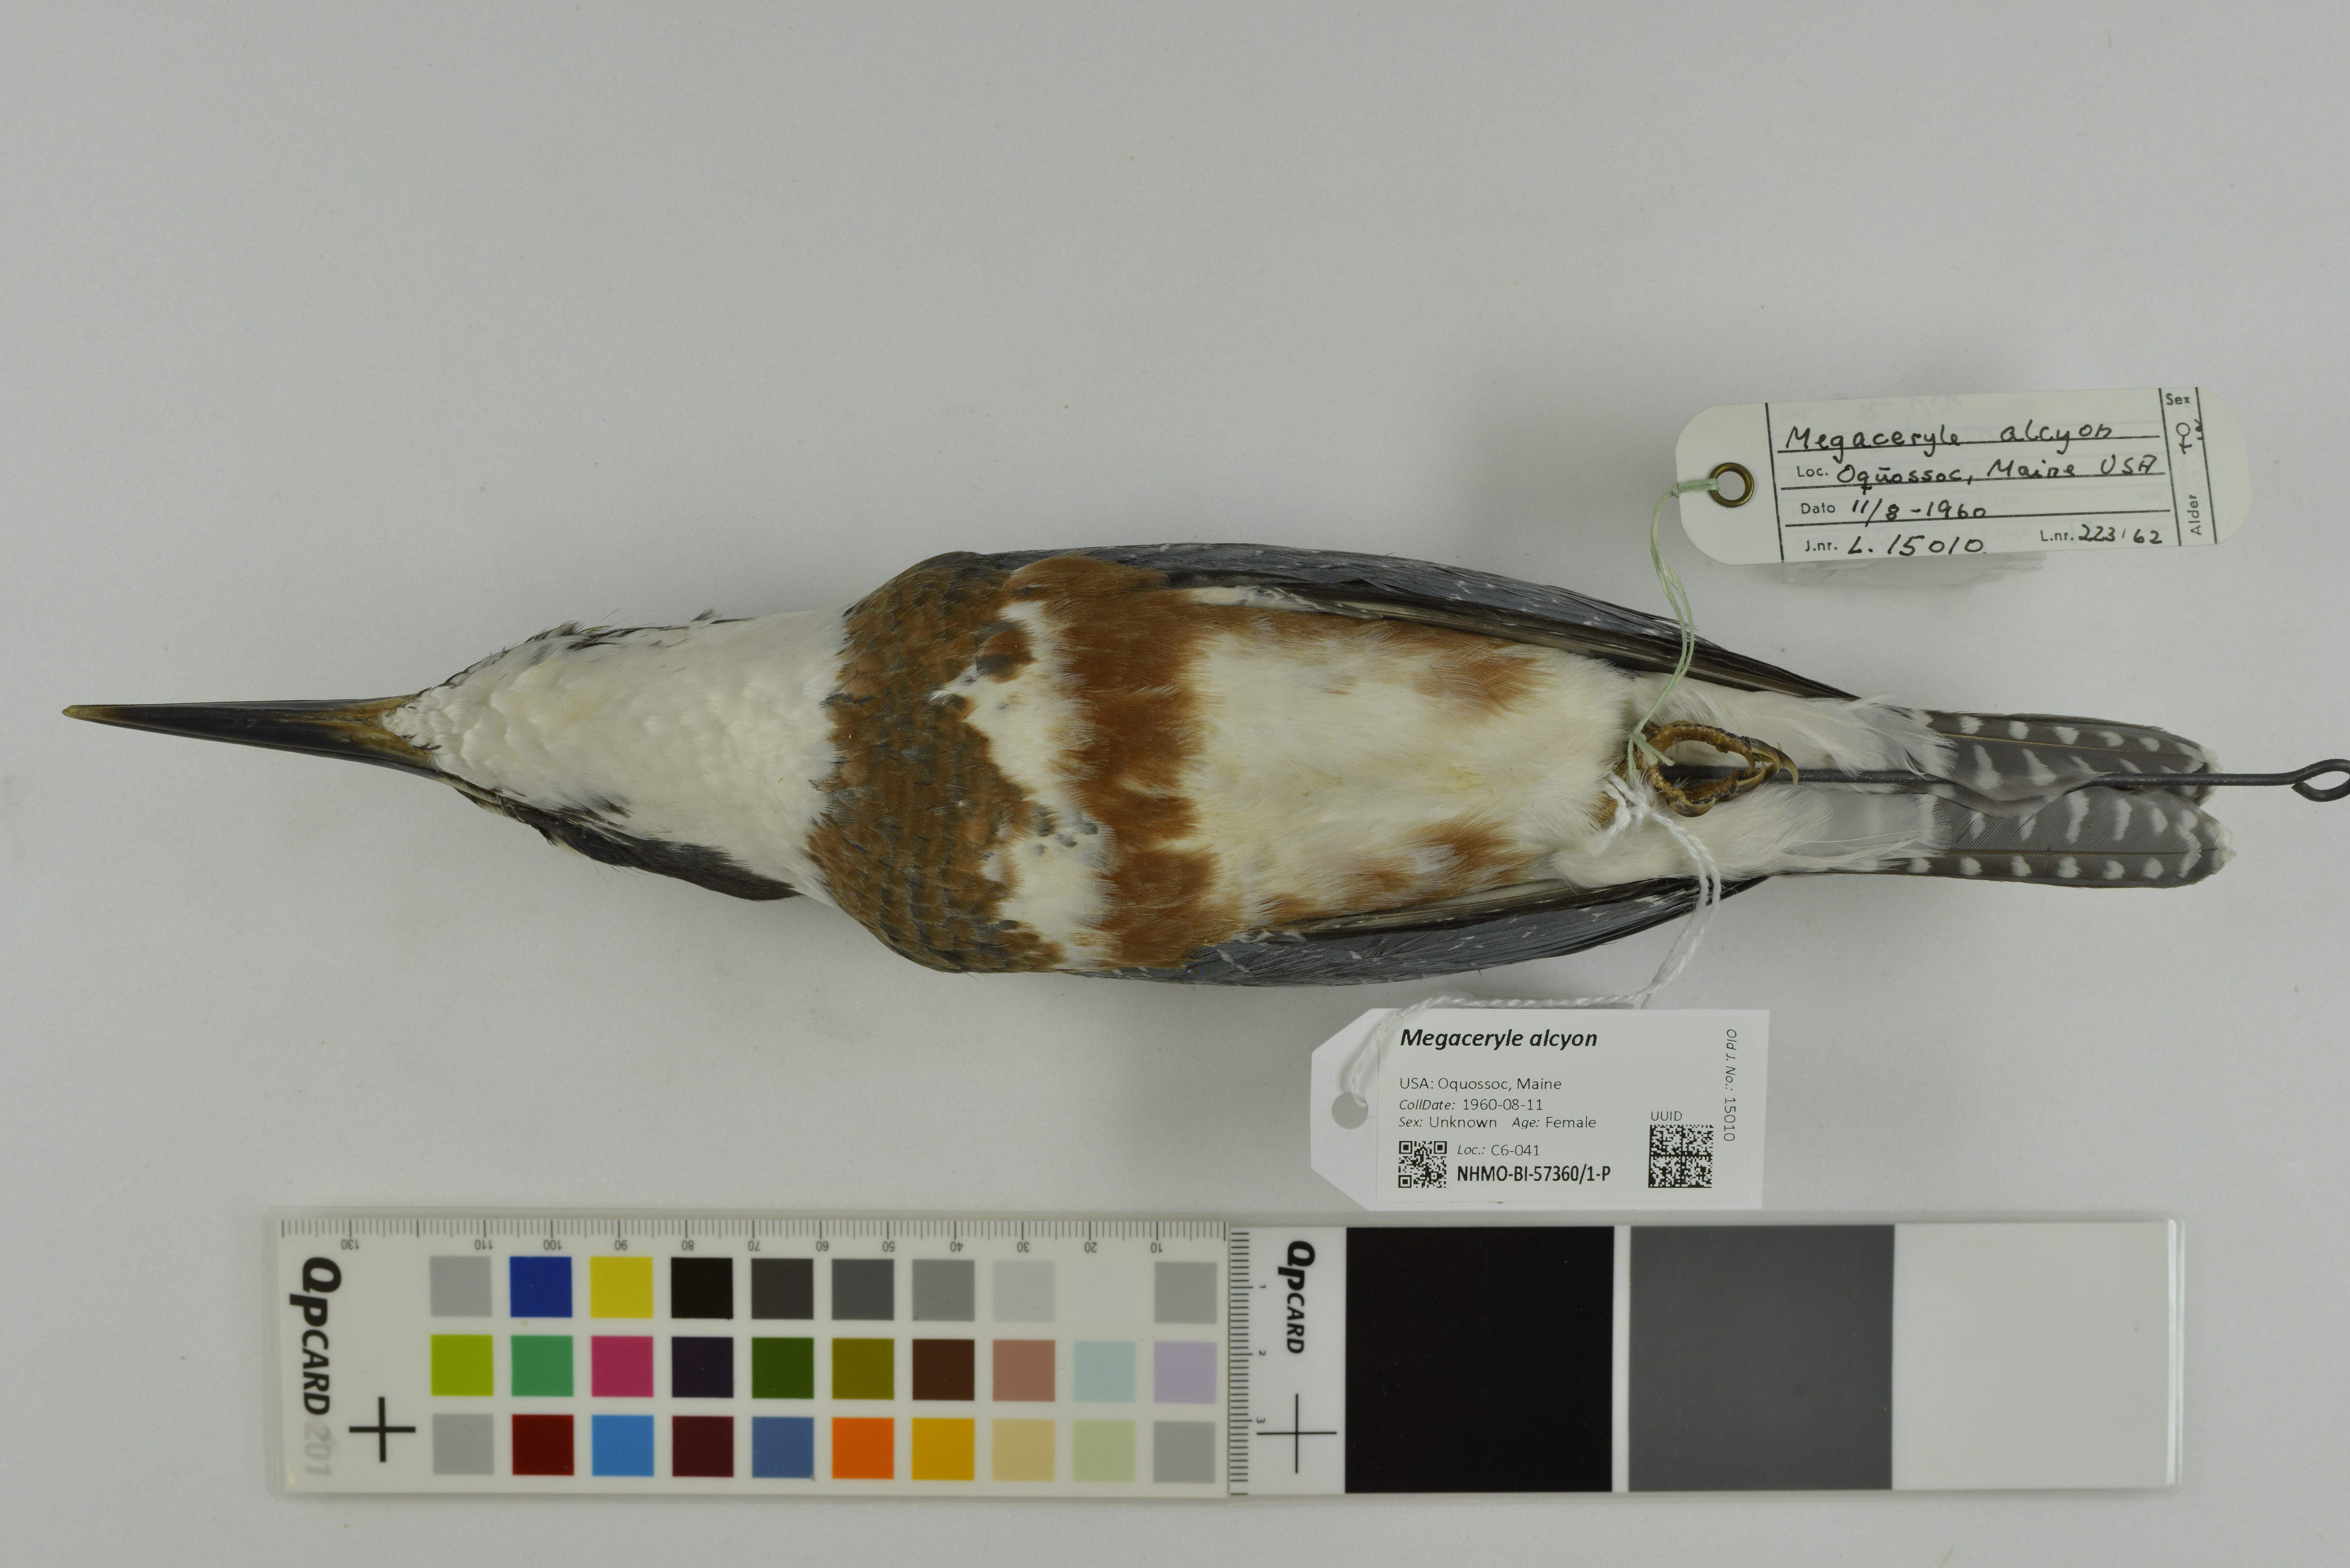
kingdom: Animalia
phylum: Chordata
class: Aves
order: Coraciiformes
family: Alcedinidae
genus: Megaceryle
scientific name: Megaceryle alcyon
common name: Belted kingfisher
